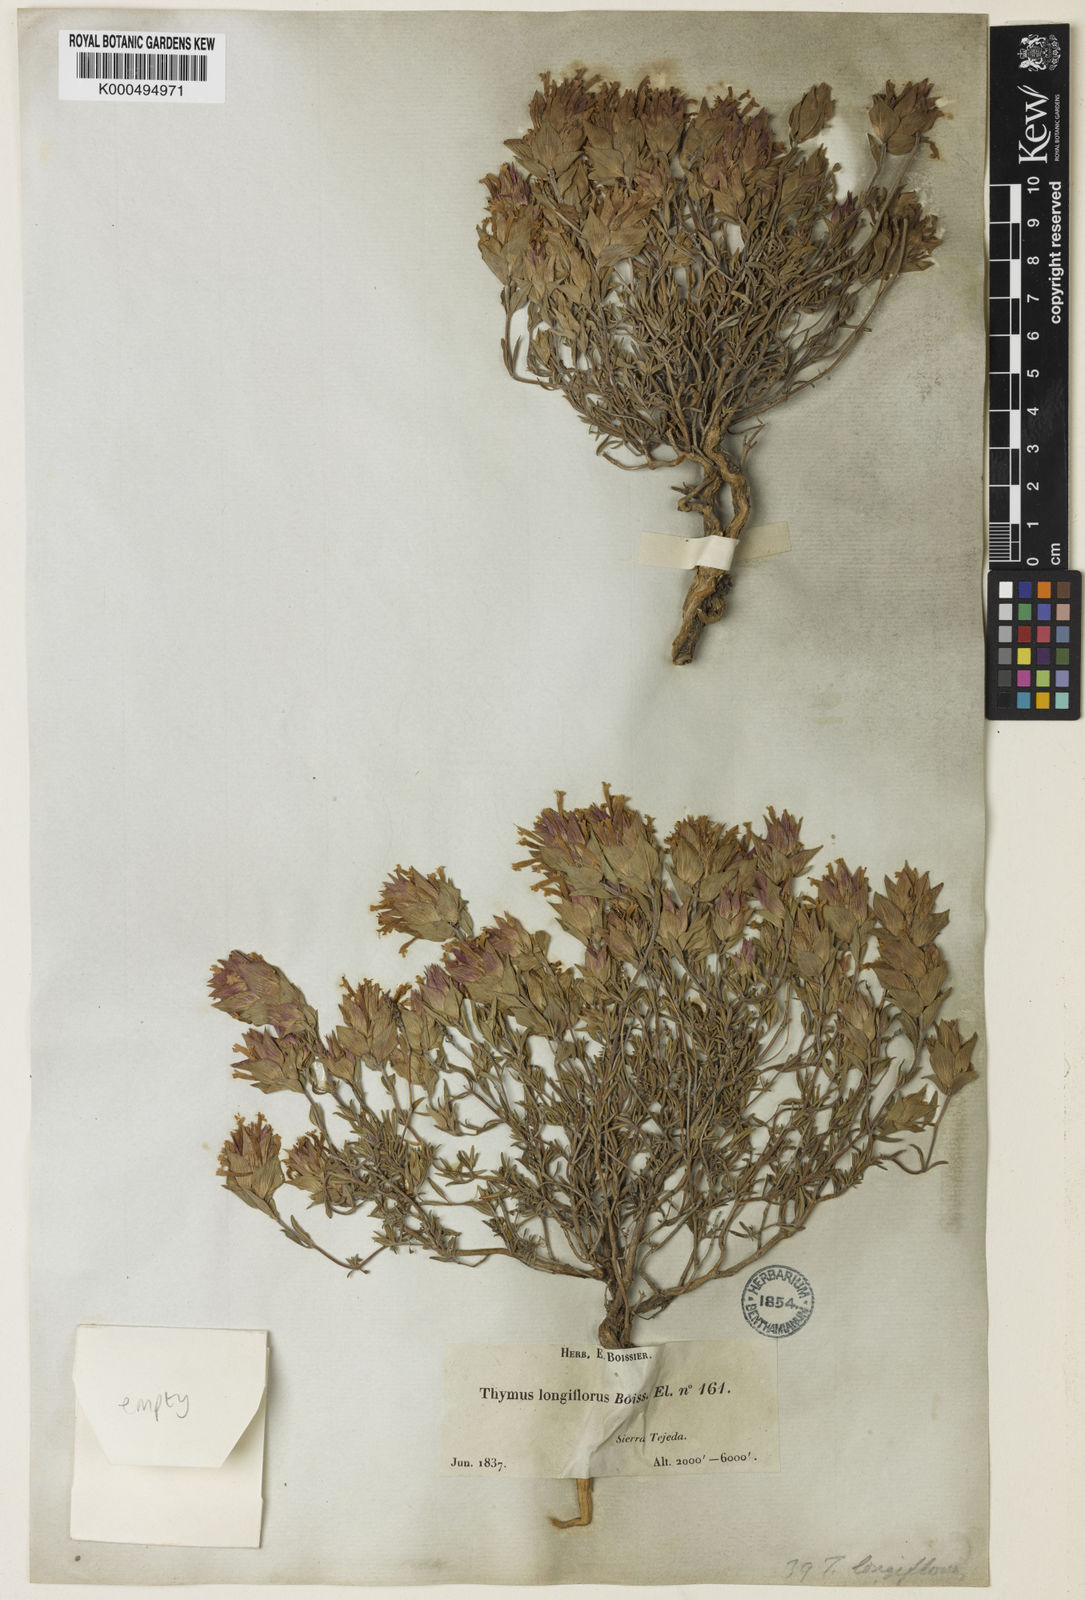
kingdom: Plantae
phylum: Tracheophyta
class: Magnoliopsida
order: Lamiales
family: Lamiaceae
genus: Thymus
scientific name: Thymus longiflorus
